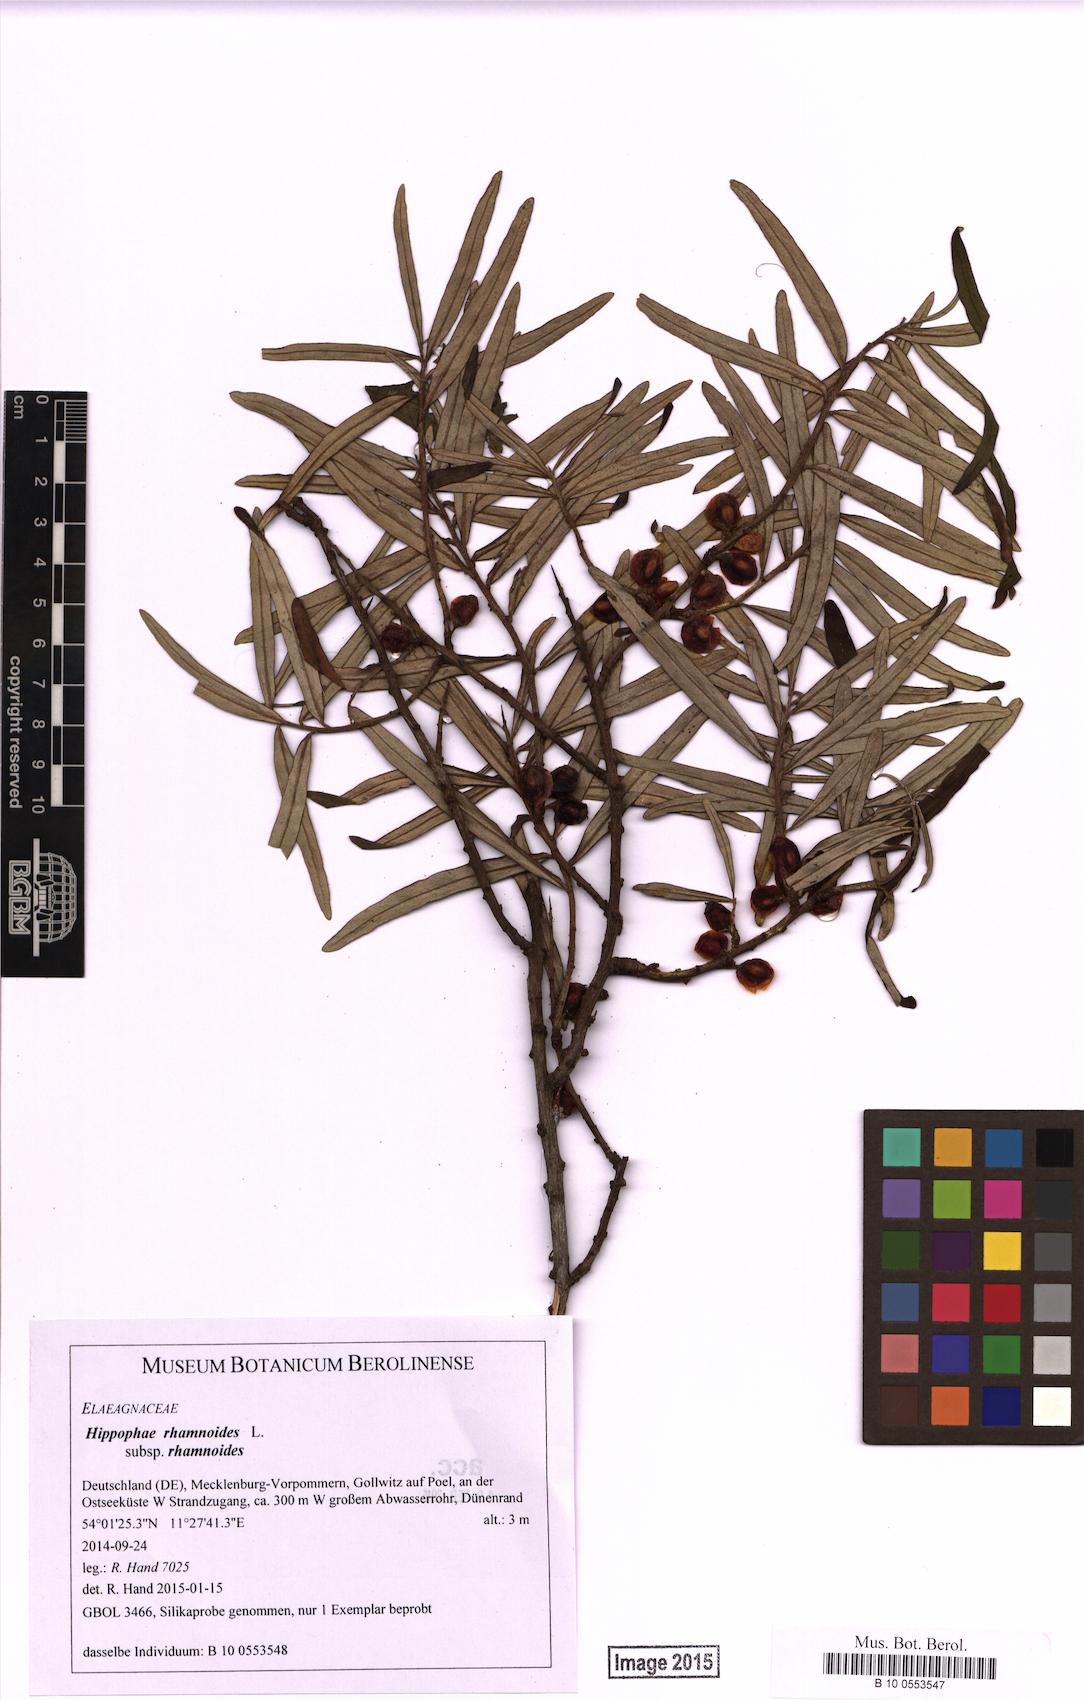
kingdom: Plantae
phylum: Tracheophyta
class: Magnoliopsida
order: Rosales
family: Elaeagnaceae
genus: Hippophae
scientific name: Hippophae rhamnoides
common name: Sea-buckthorn
